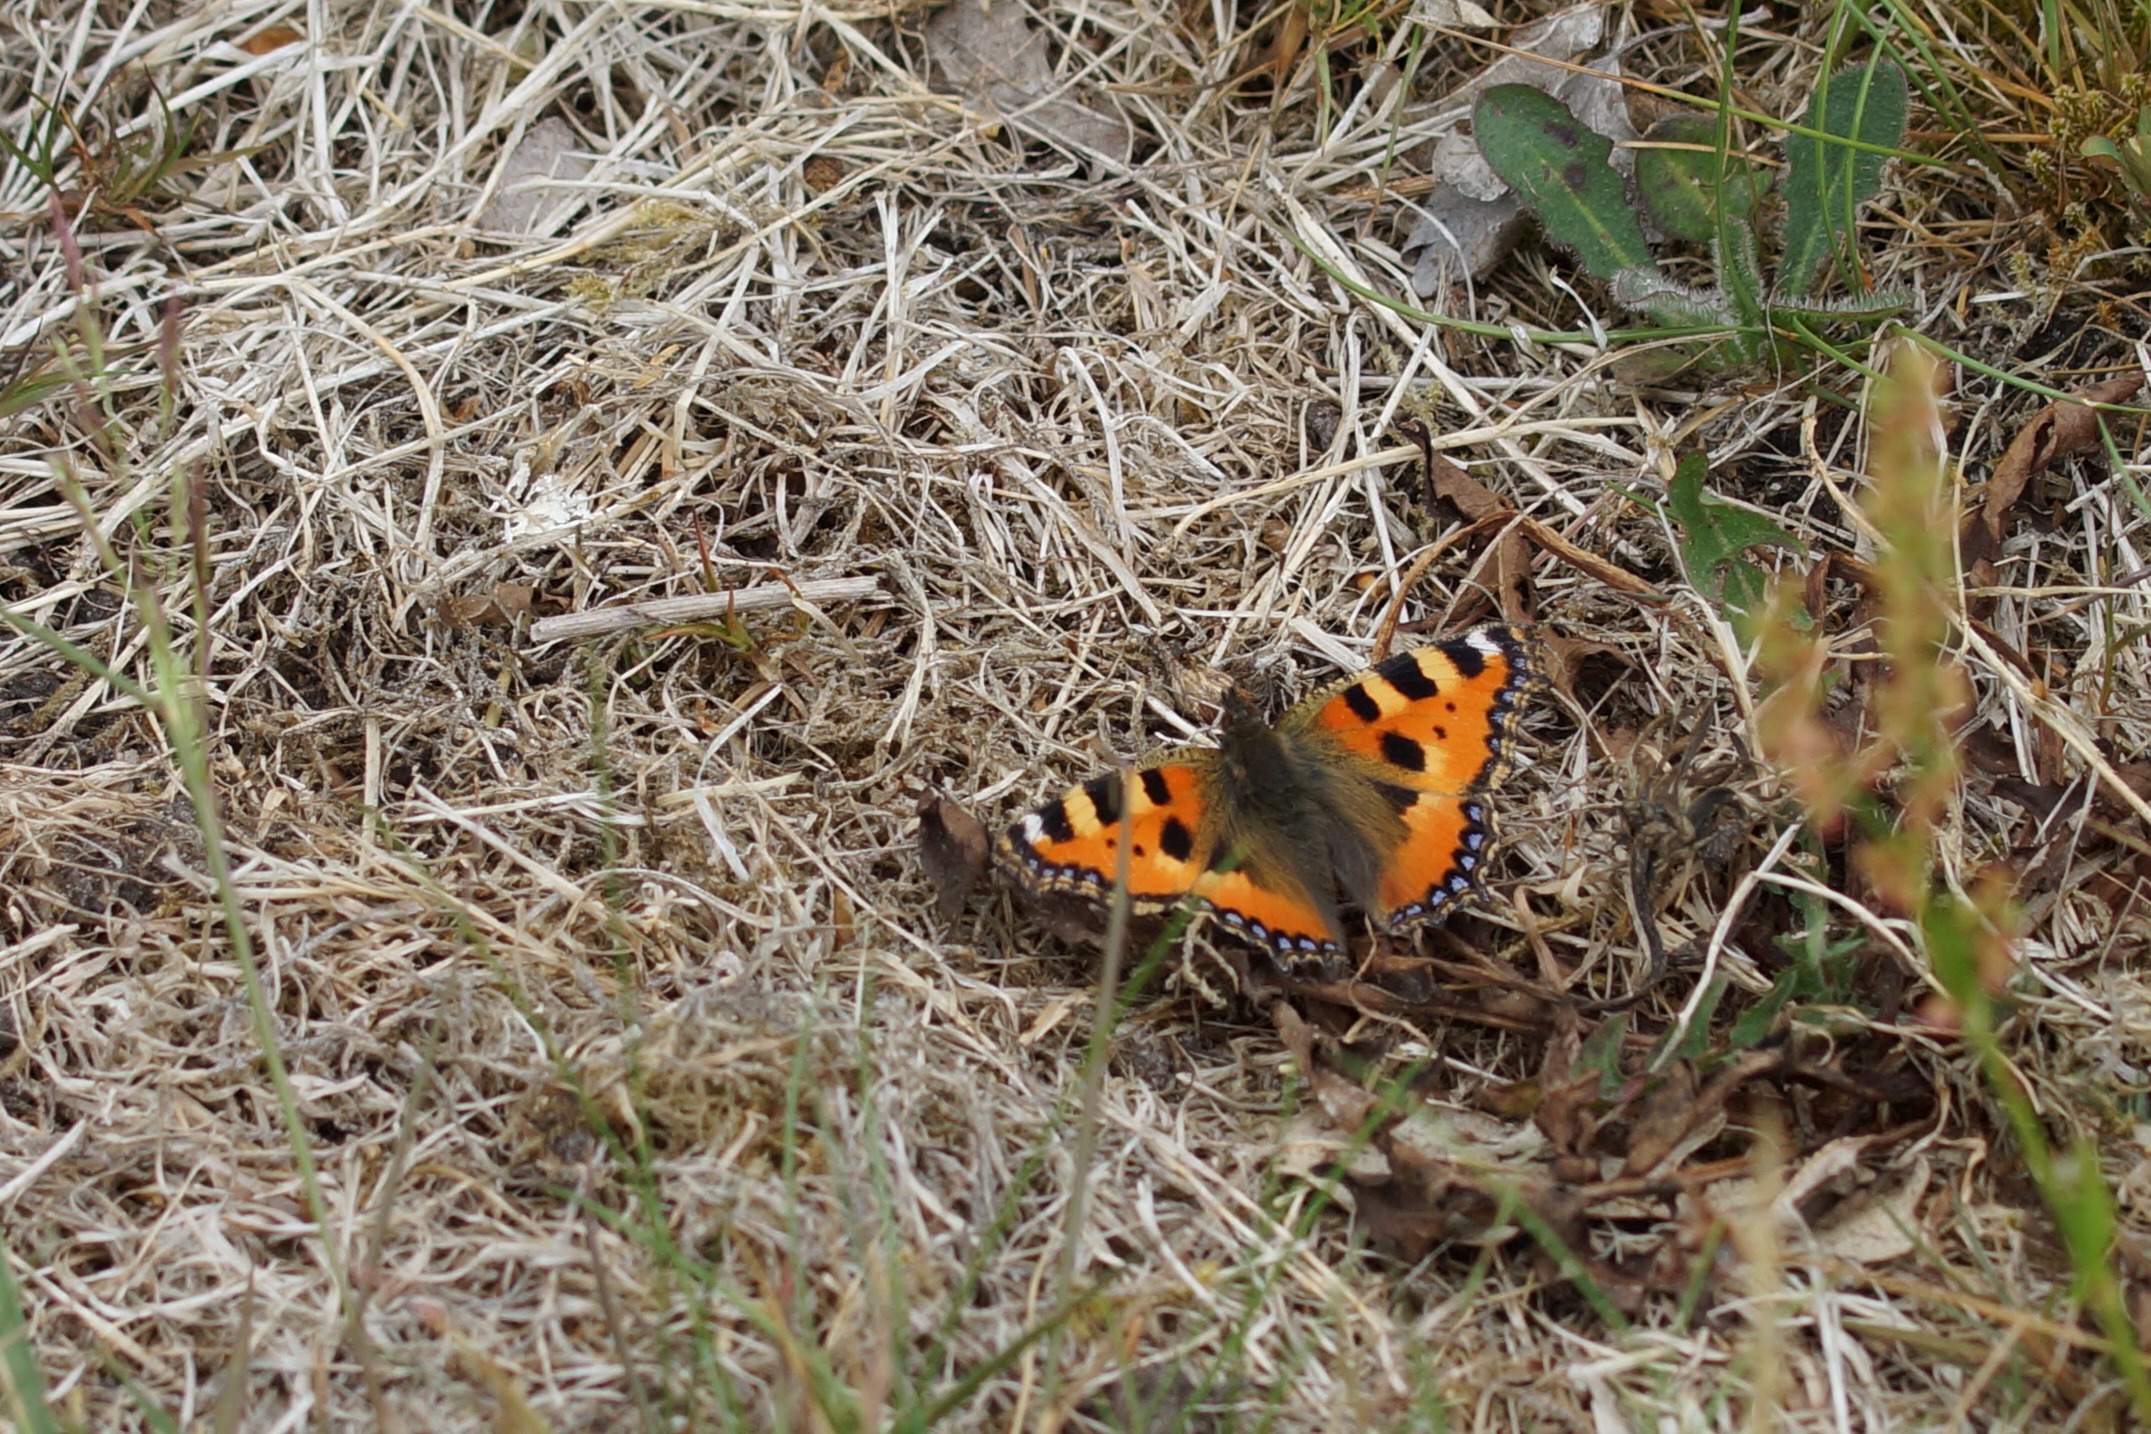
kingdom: Animalia
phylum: Arthropoda
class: Insecta
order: Lepidoptera
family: Nymphalidae
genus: Aglais
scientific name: Aglais urticae
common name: Nældens takvinge
